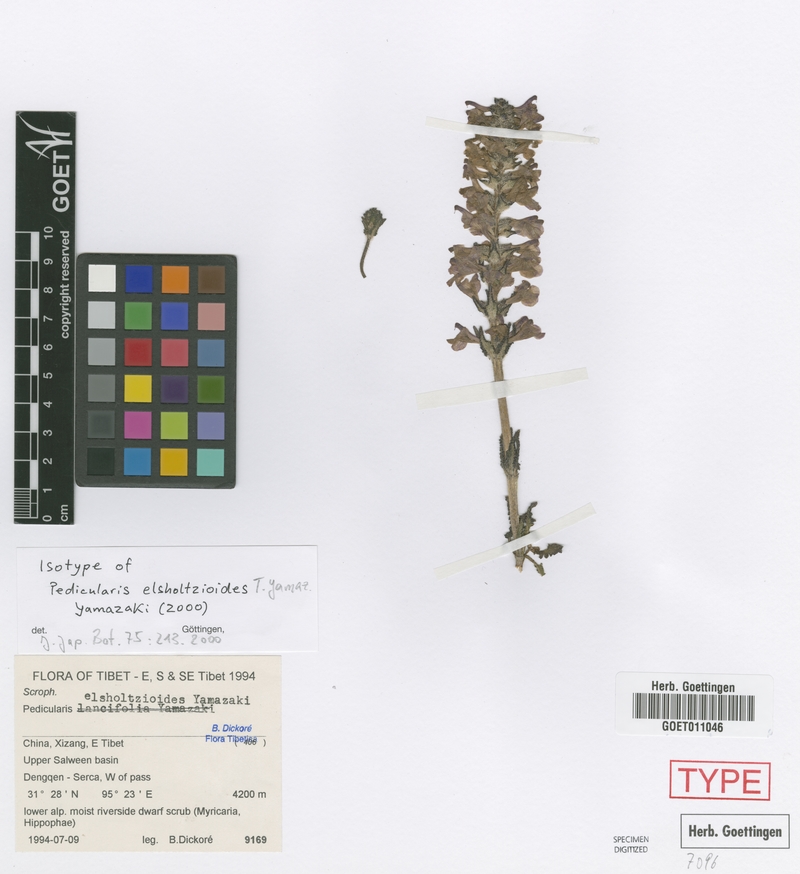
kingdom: Plantae
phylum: Tracheophyta
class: Magnoliopsida
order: Lamiales
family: Orobanchaceae
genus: Pedicularis
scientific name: Pedicularis elsholtzioides
